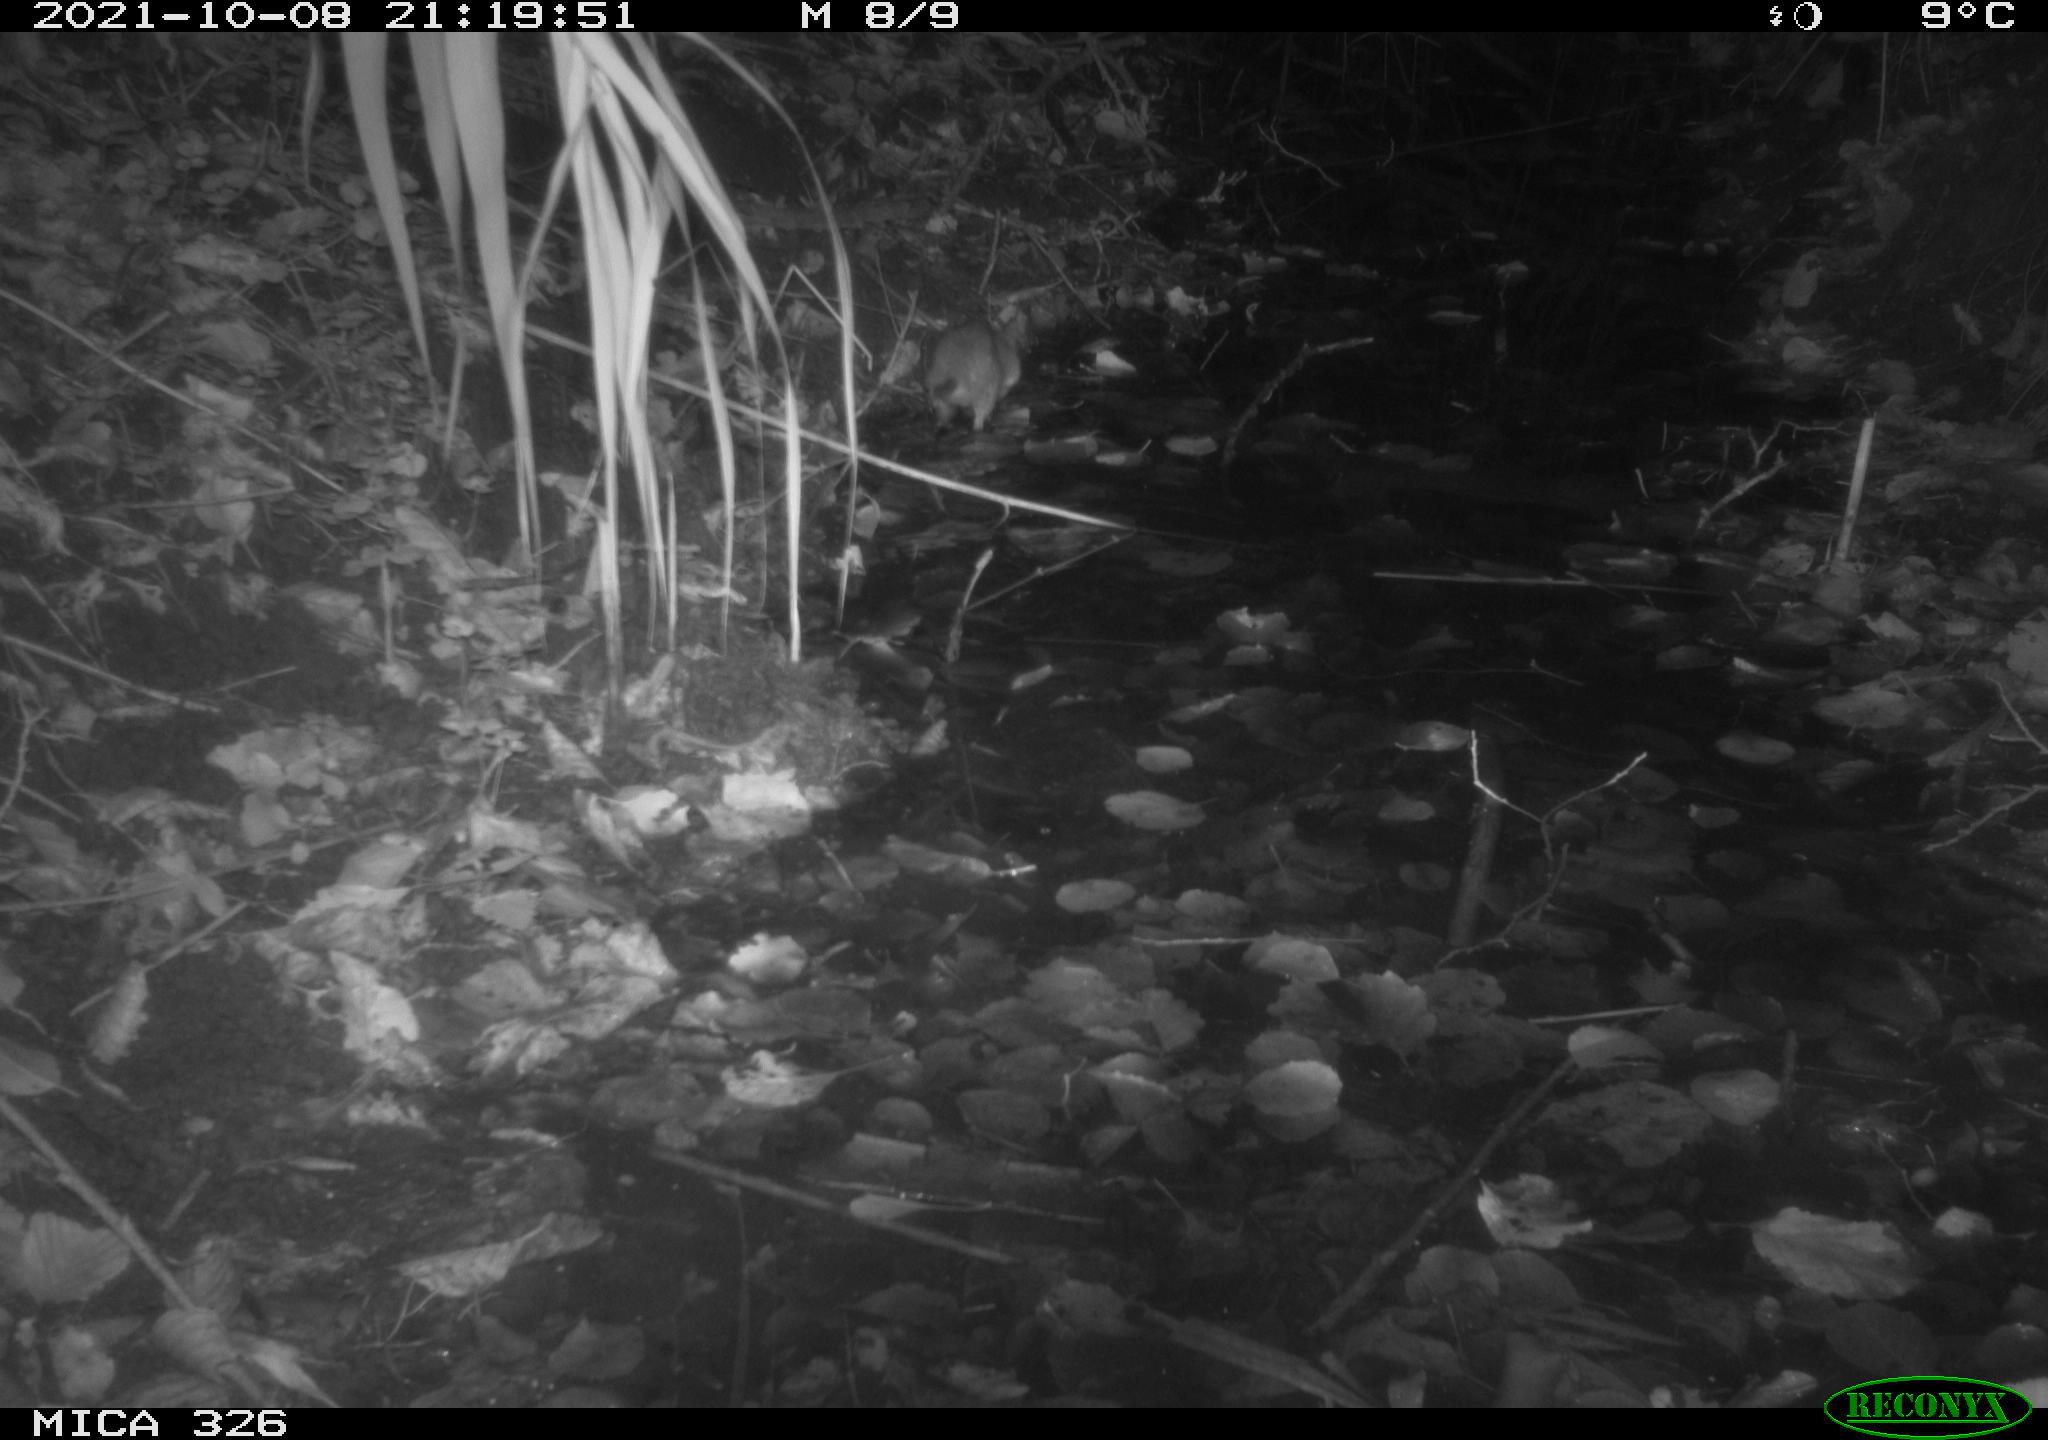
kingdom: Animalia
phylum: Chordata
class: Mammalia
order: Rodentia
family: Muridae
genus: Rattus
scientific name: Rattus norvegicus
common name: Brown rat
